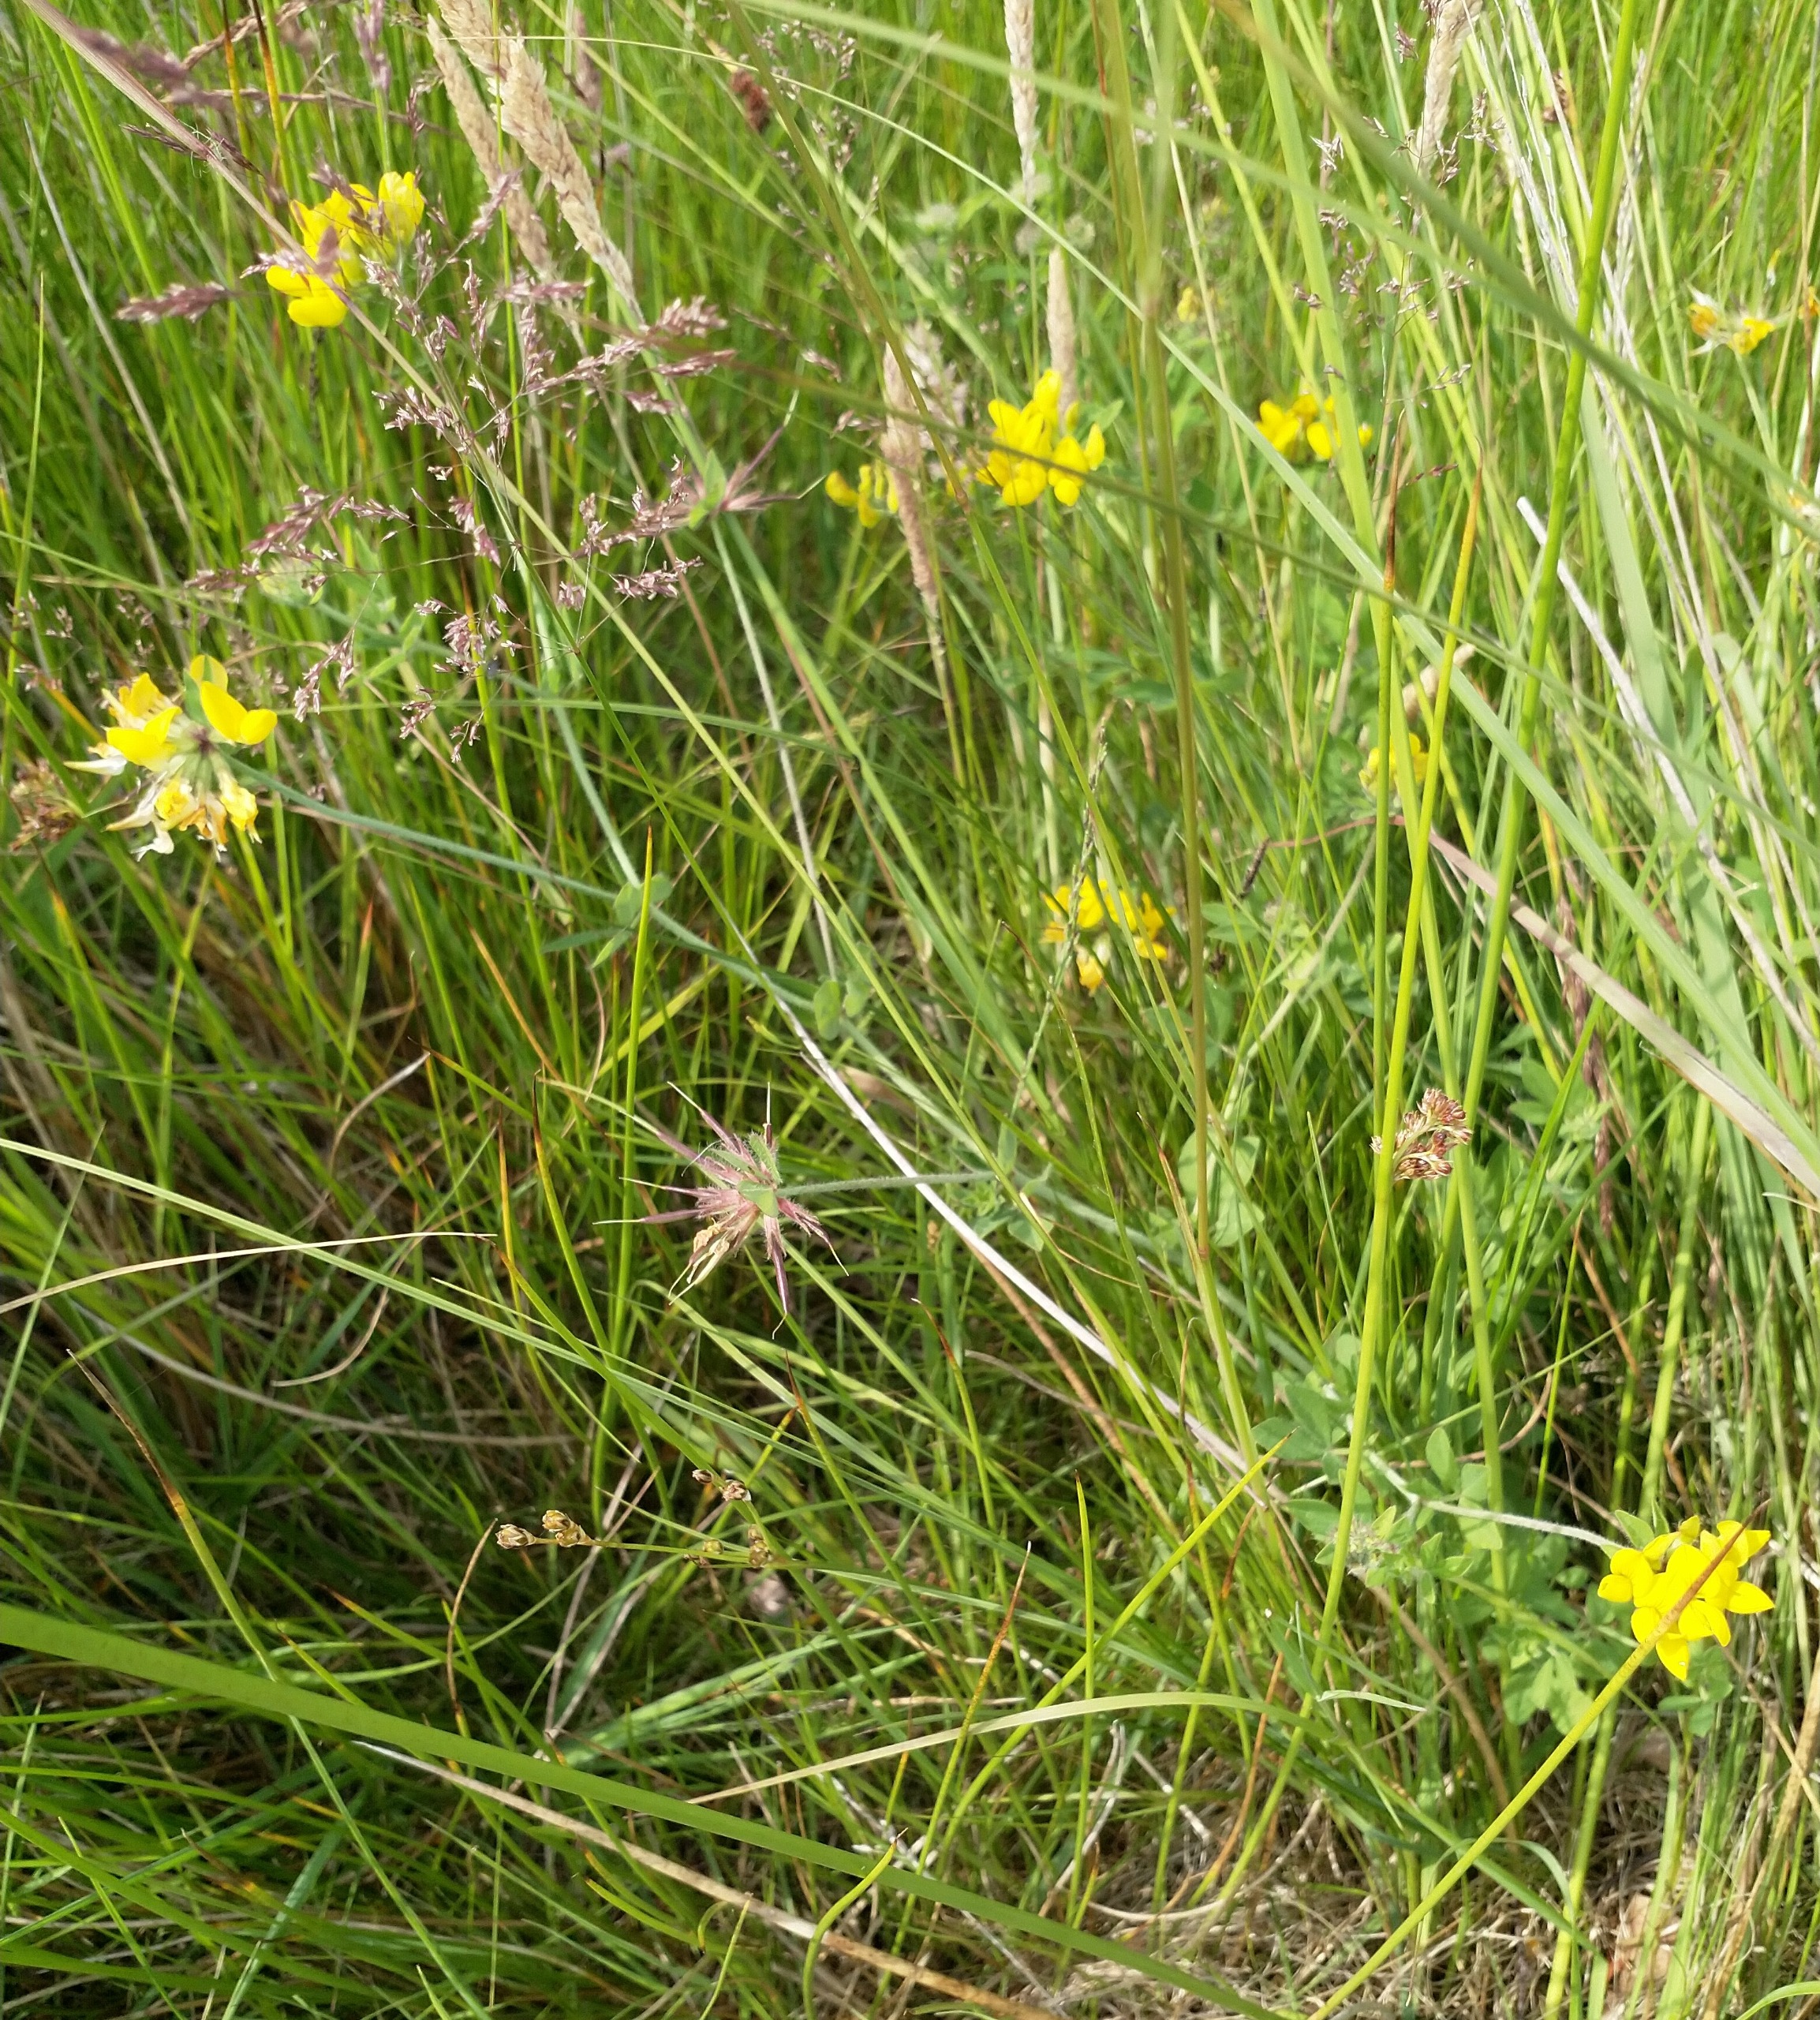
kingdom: Plantae
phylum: Tracheophyta
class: Magnoliopsida
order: Fabales
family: Fabaceae
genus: Lotus
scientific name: Lotus pedunculatus
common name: Sump-kællingetand
